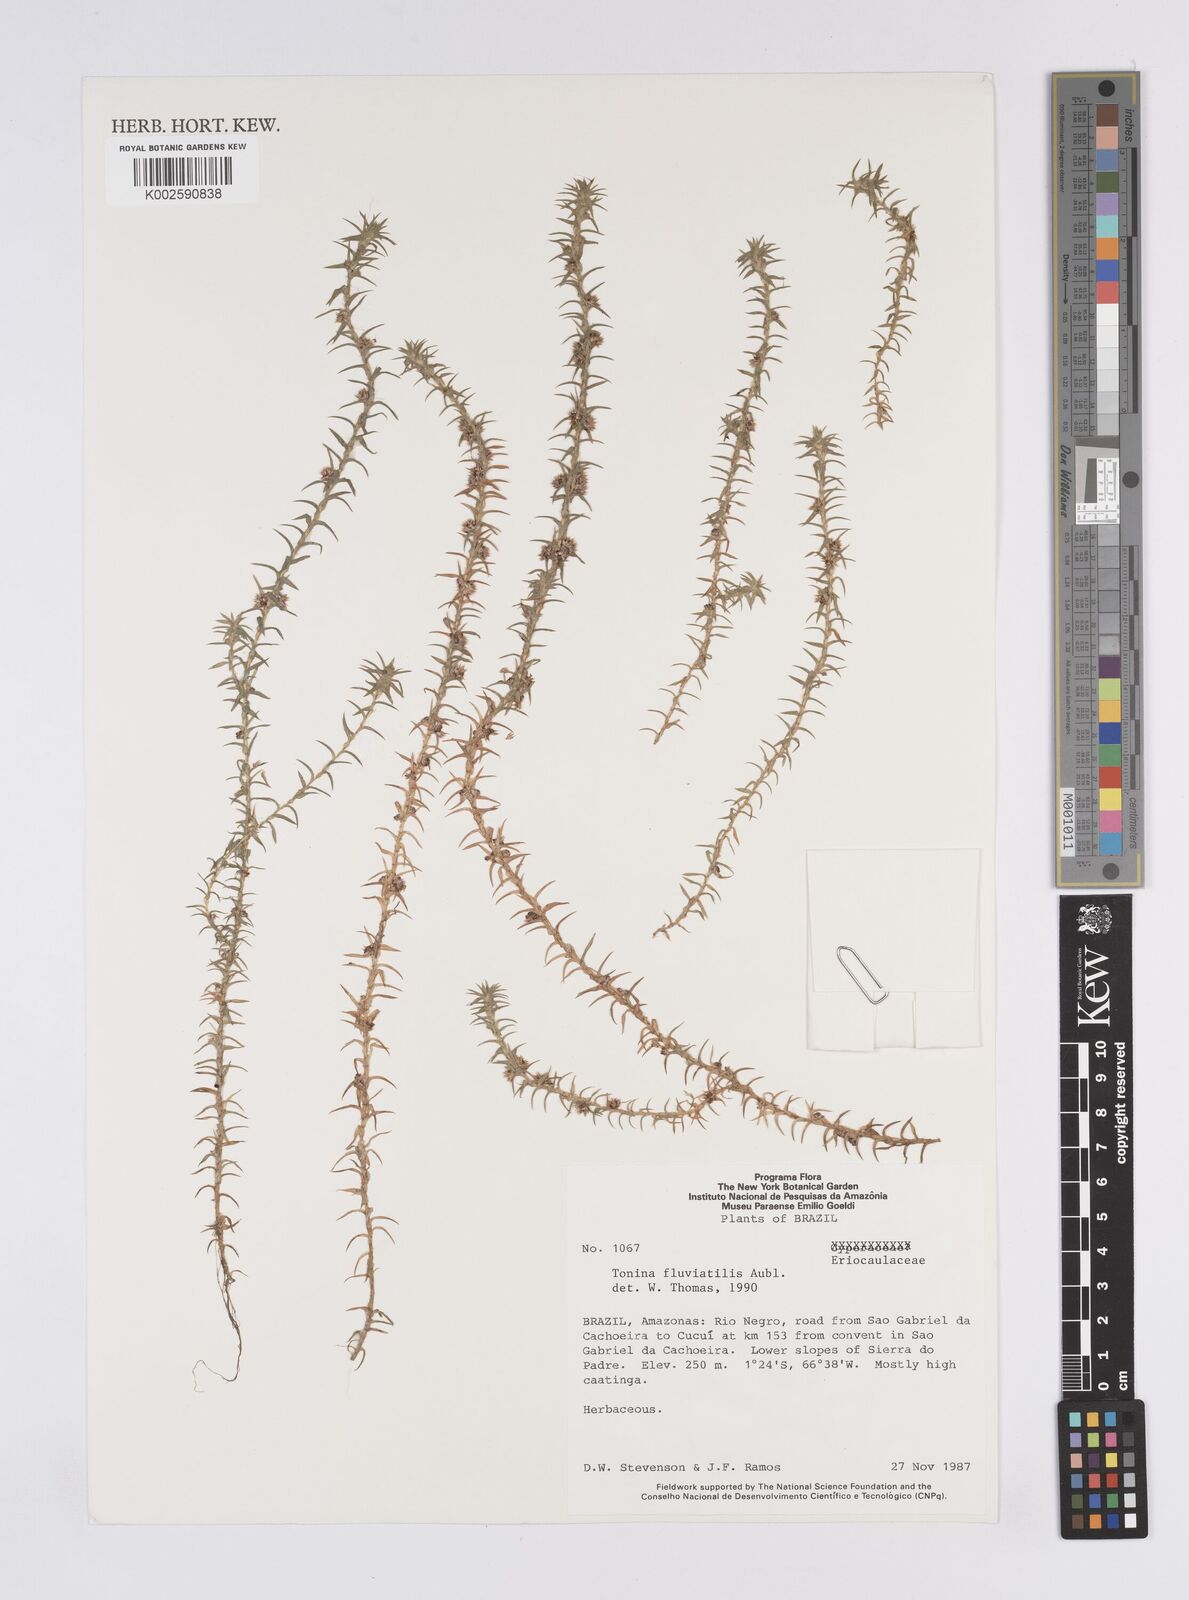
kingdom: Plantae
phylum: Tracheophyta
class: Liliopsida
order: Poales
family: Eriocaulaceae
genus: Paepalanthus
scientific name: Paepalanthus fluviatilis
